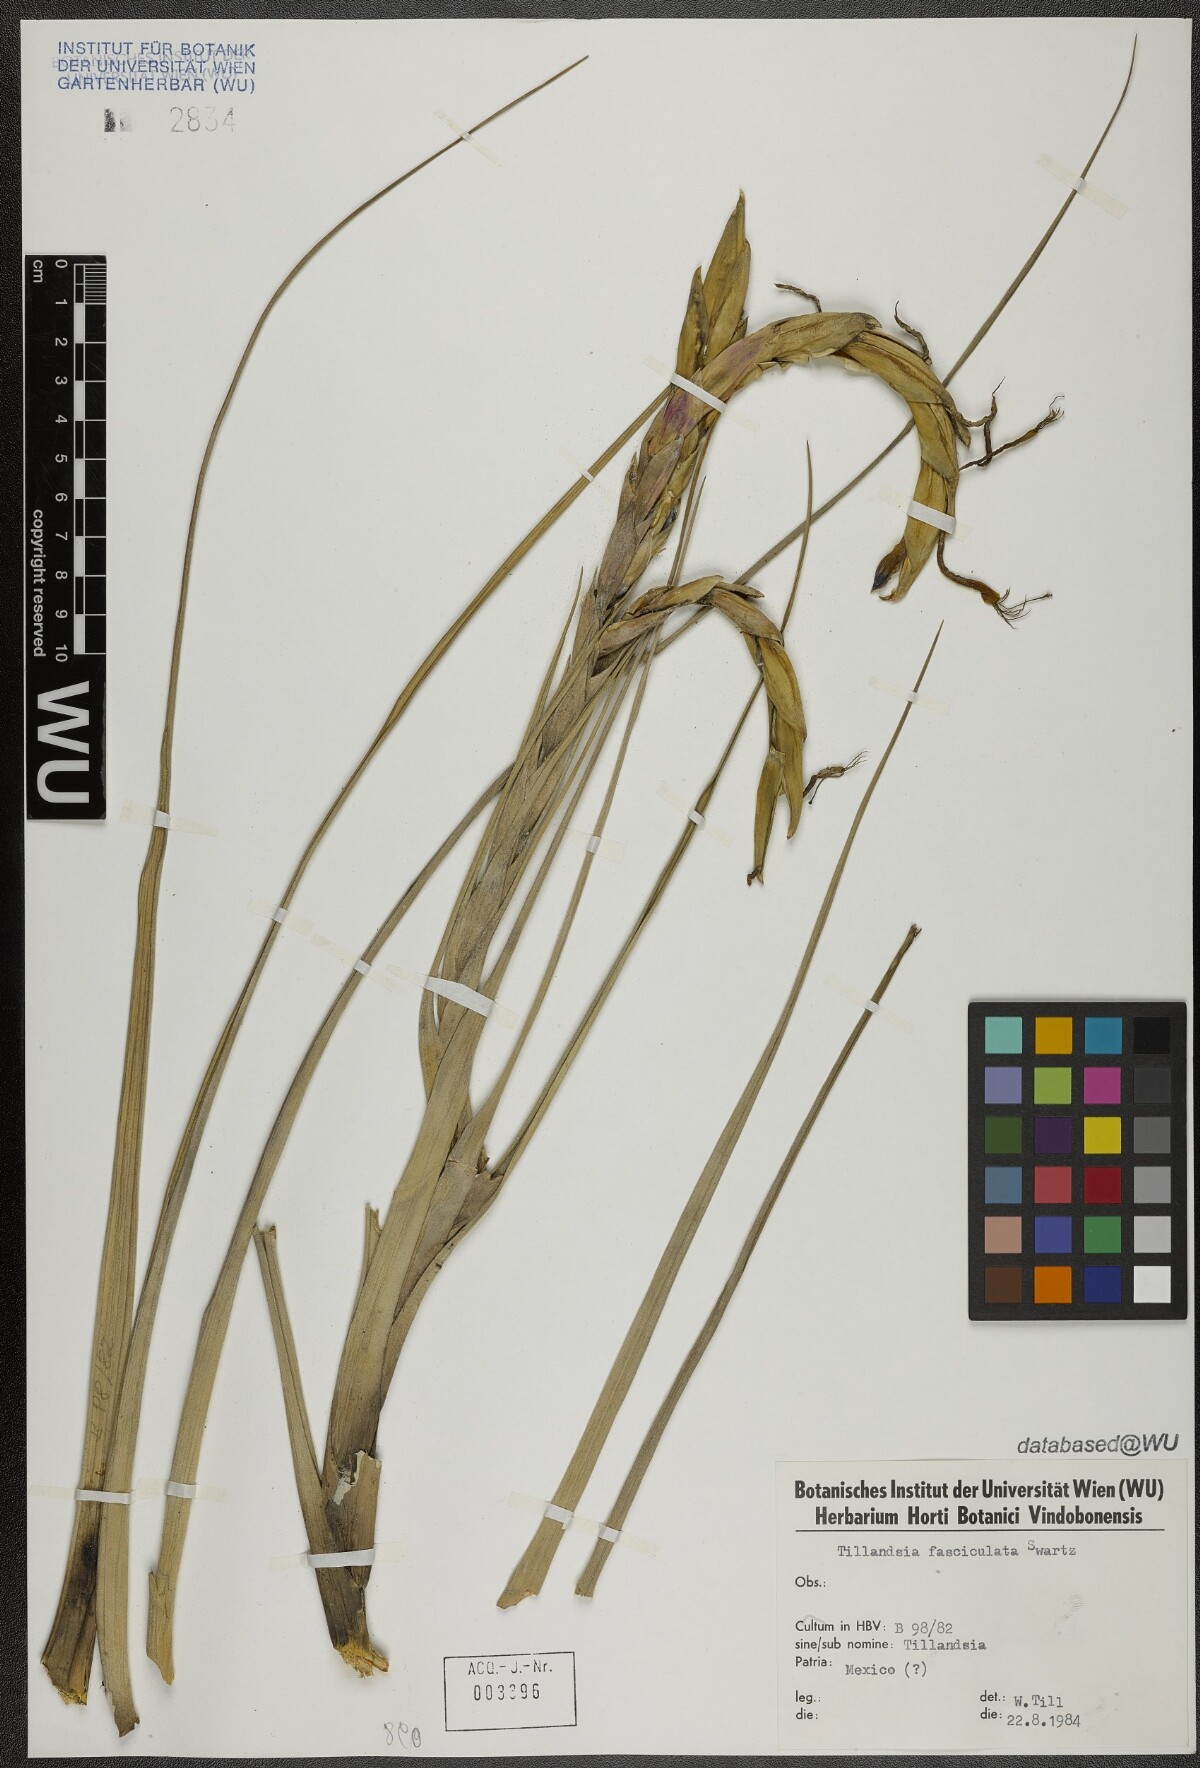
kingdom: Plantae
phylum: Tracheophyta
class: Liliopsida
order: Poales
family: Bromeliaceae
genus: Tillandsia
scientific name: Tillandsia fasciculata
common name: Giant airplant
